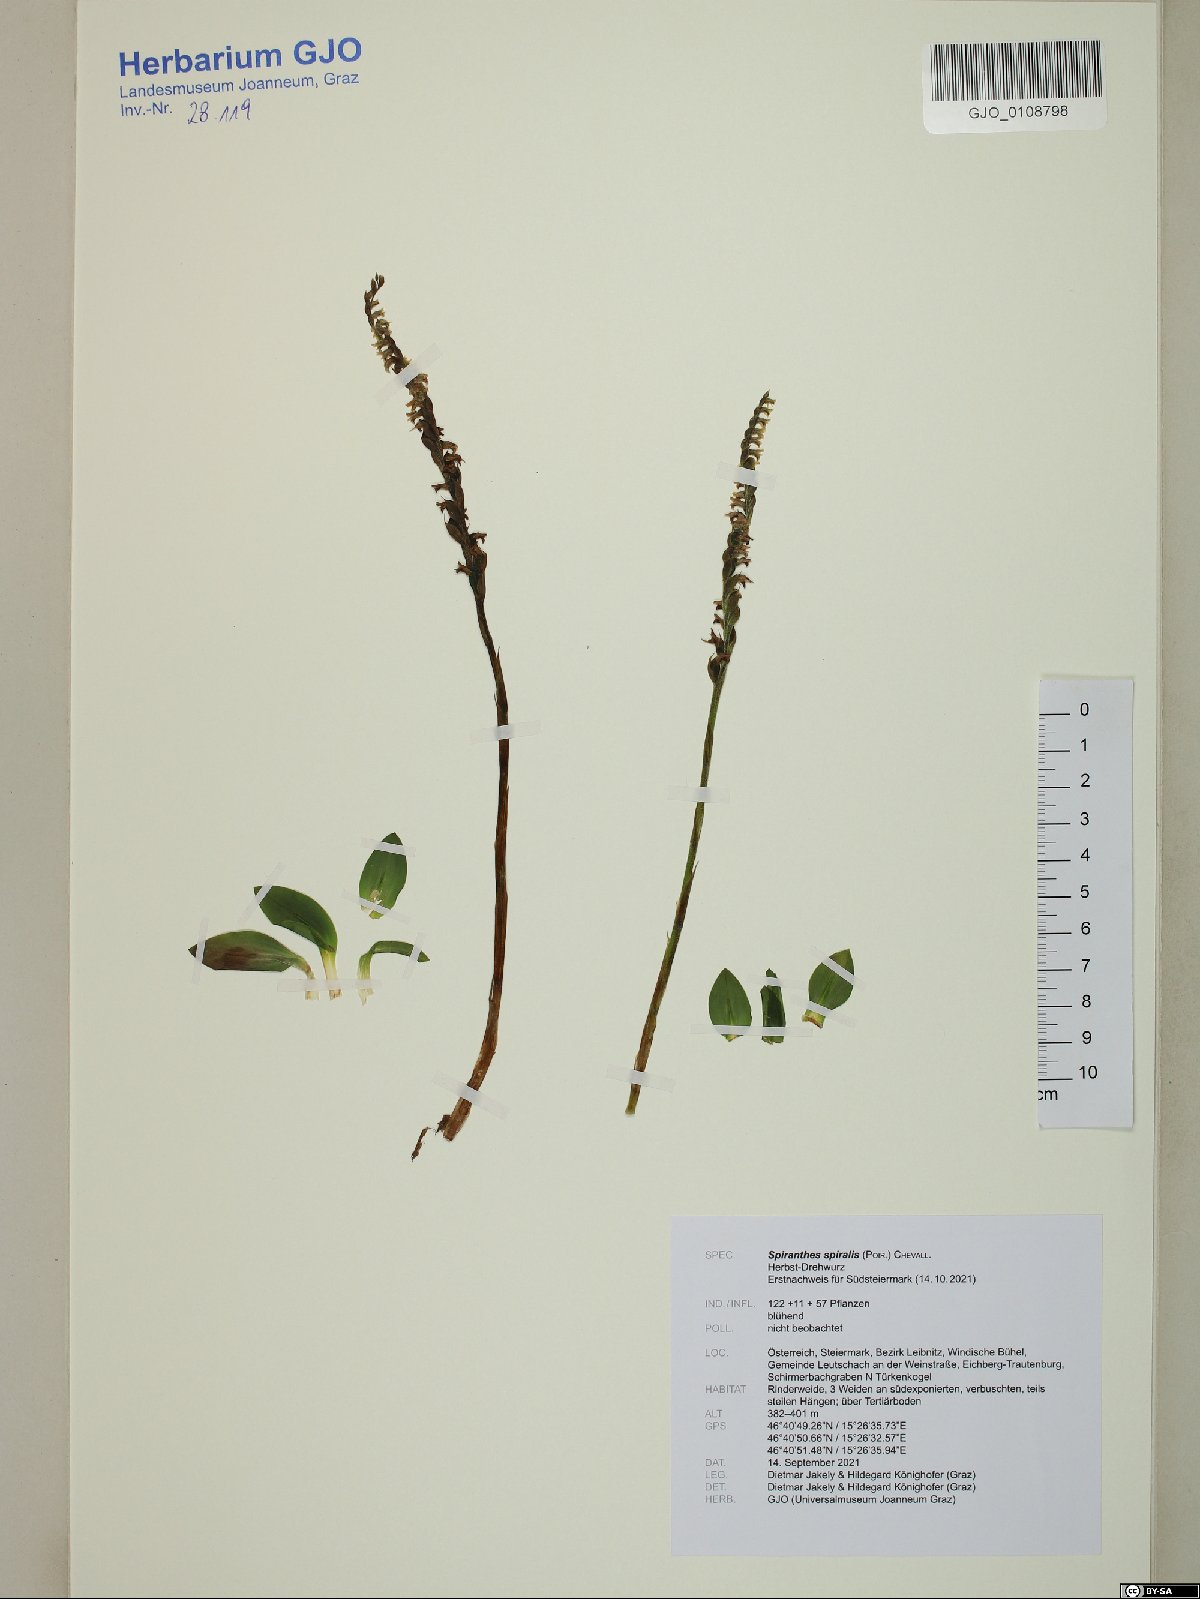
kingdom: Plantae
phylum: Tracheophyta
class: Liliopsida
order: Asparagales
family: Orchidaceae
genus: Spiranthes
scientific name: Spiranthes spiralis
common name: Autumn lady's-tresses
